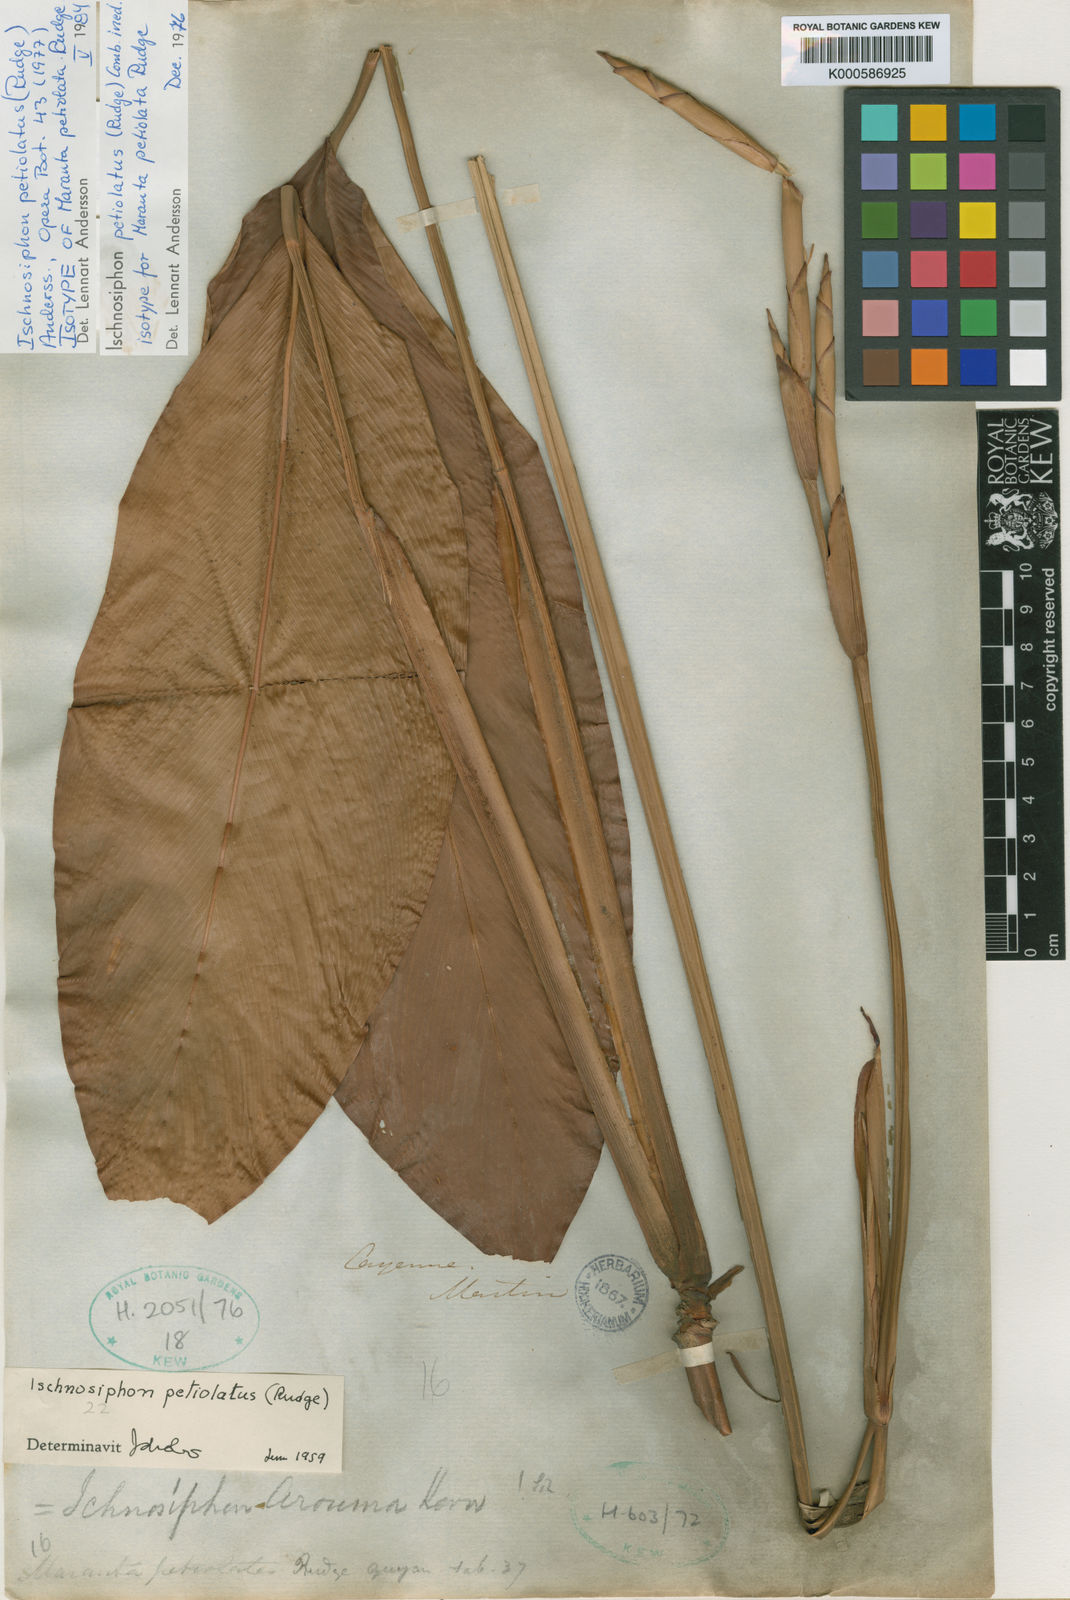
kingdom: Plantae
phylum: Tracheophyta
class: Liliopsida
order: Zingiberales
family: Marantaceae
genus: Ischnosiphon
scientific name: Ischnosiphon petiolatus
